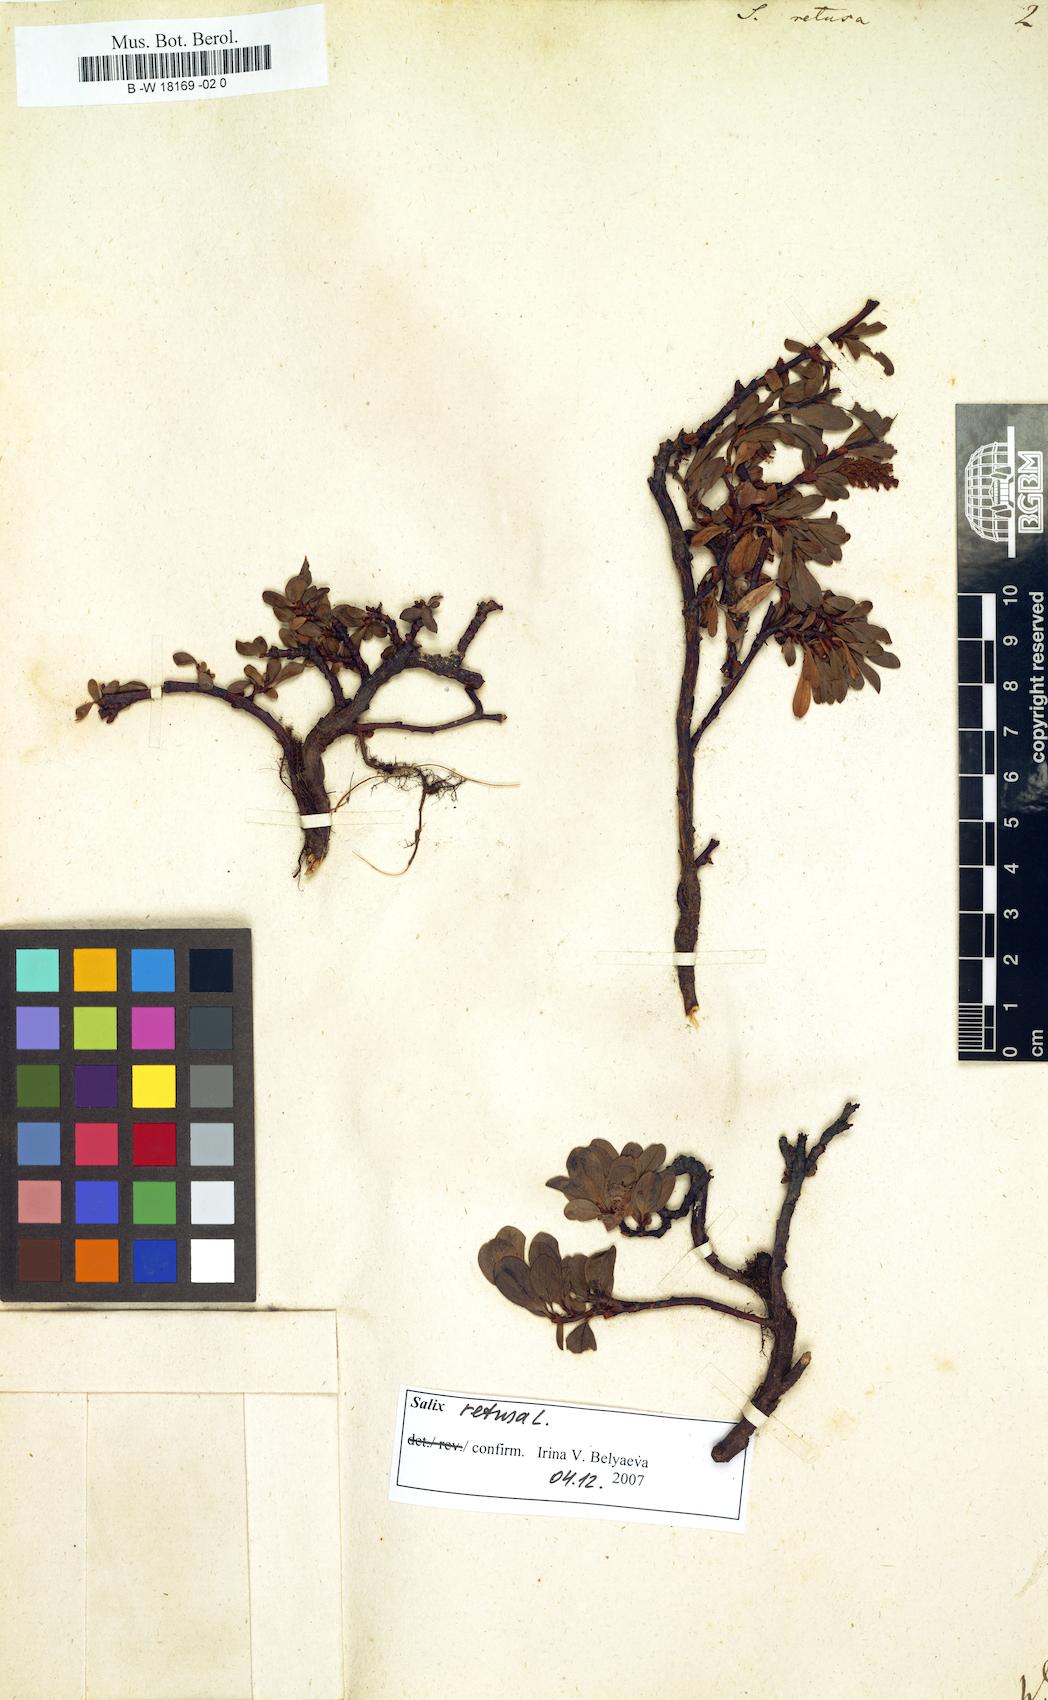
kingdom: Plantae
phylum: Tracheophyta
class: Magnoliopsida
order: Malpighiales
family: Salicaceae
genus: Salix
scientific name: Salix retusa
